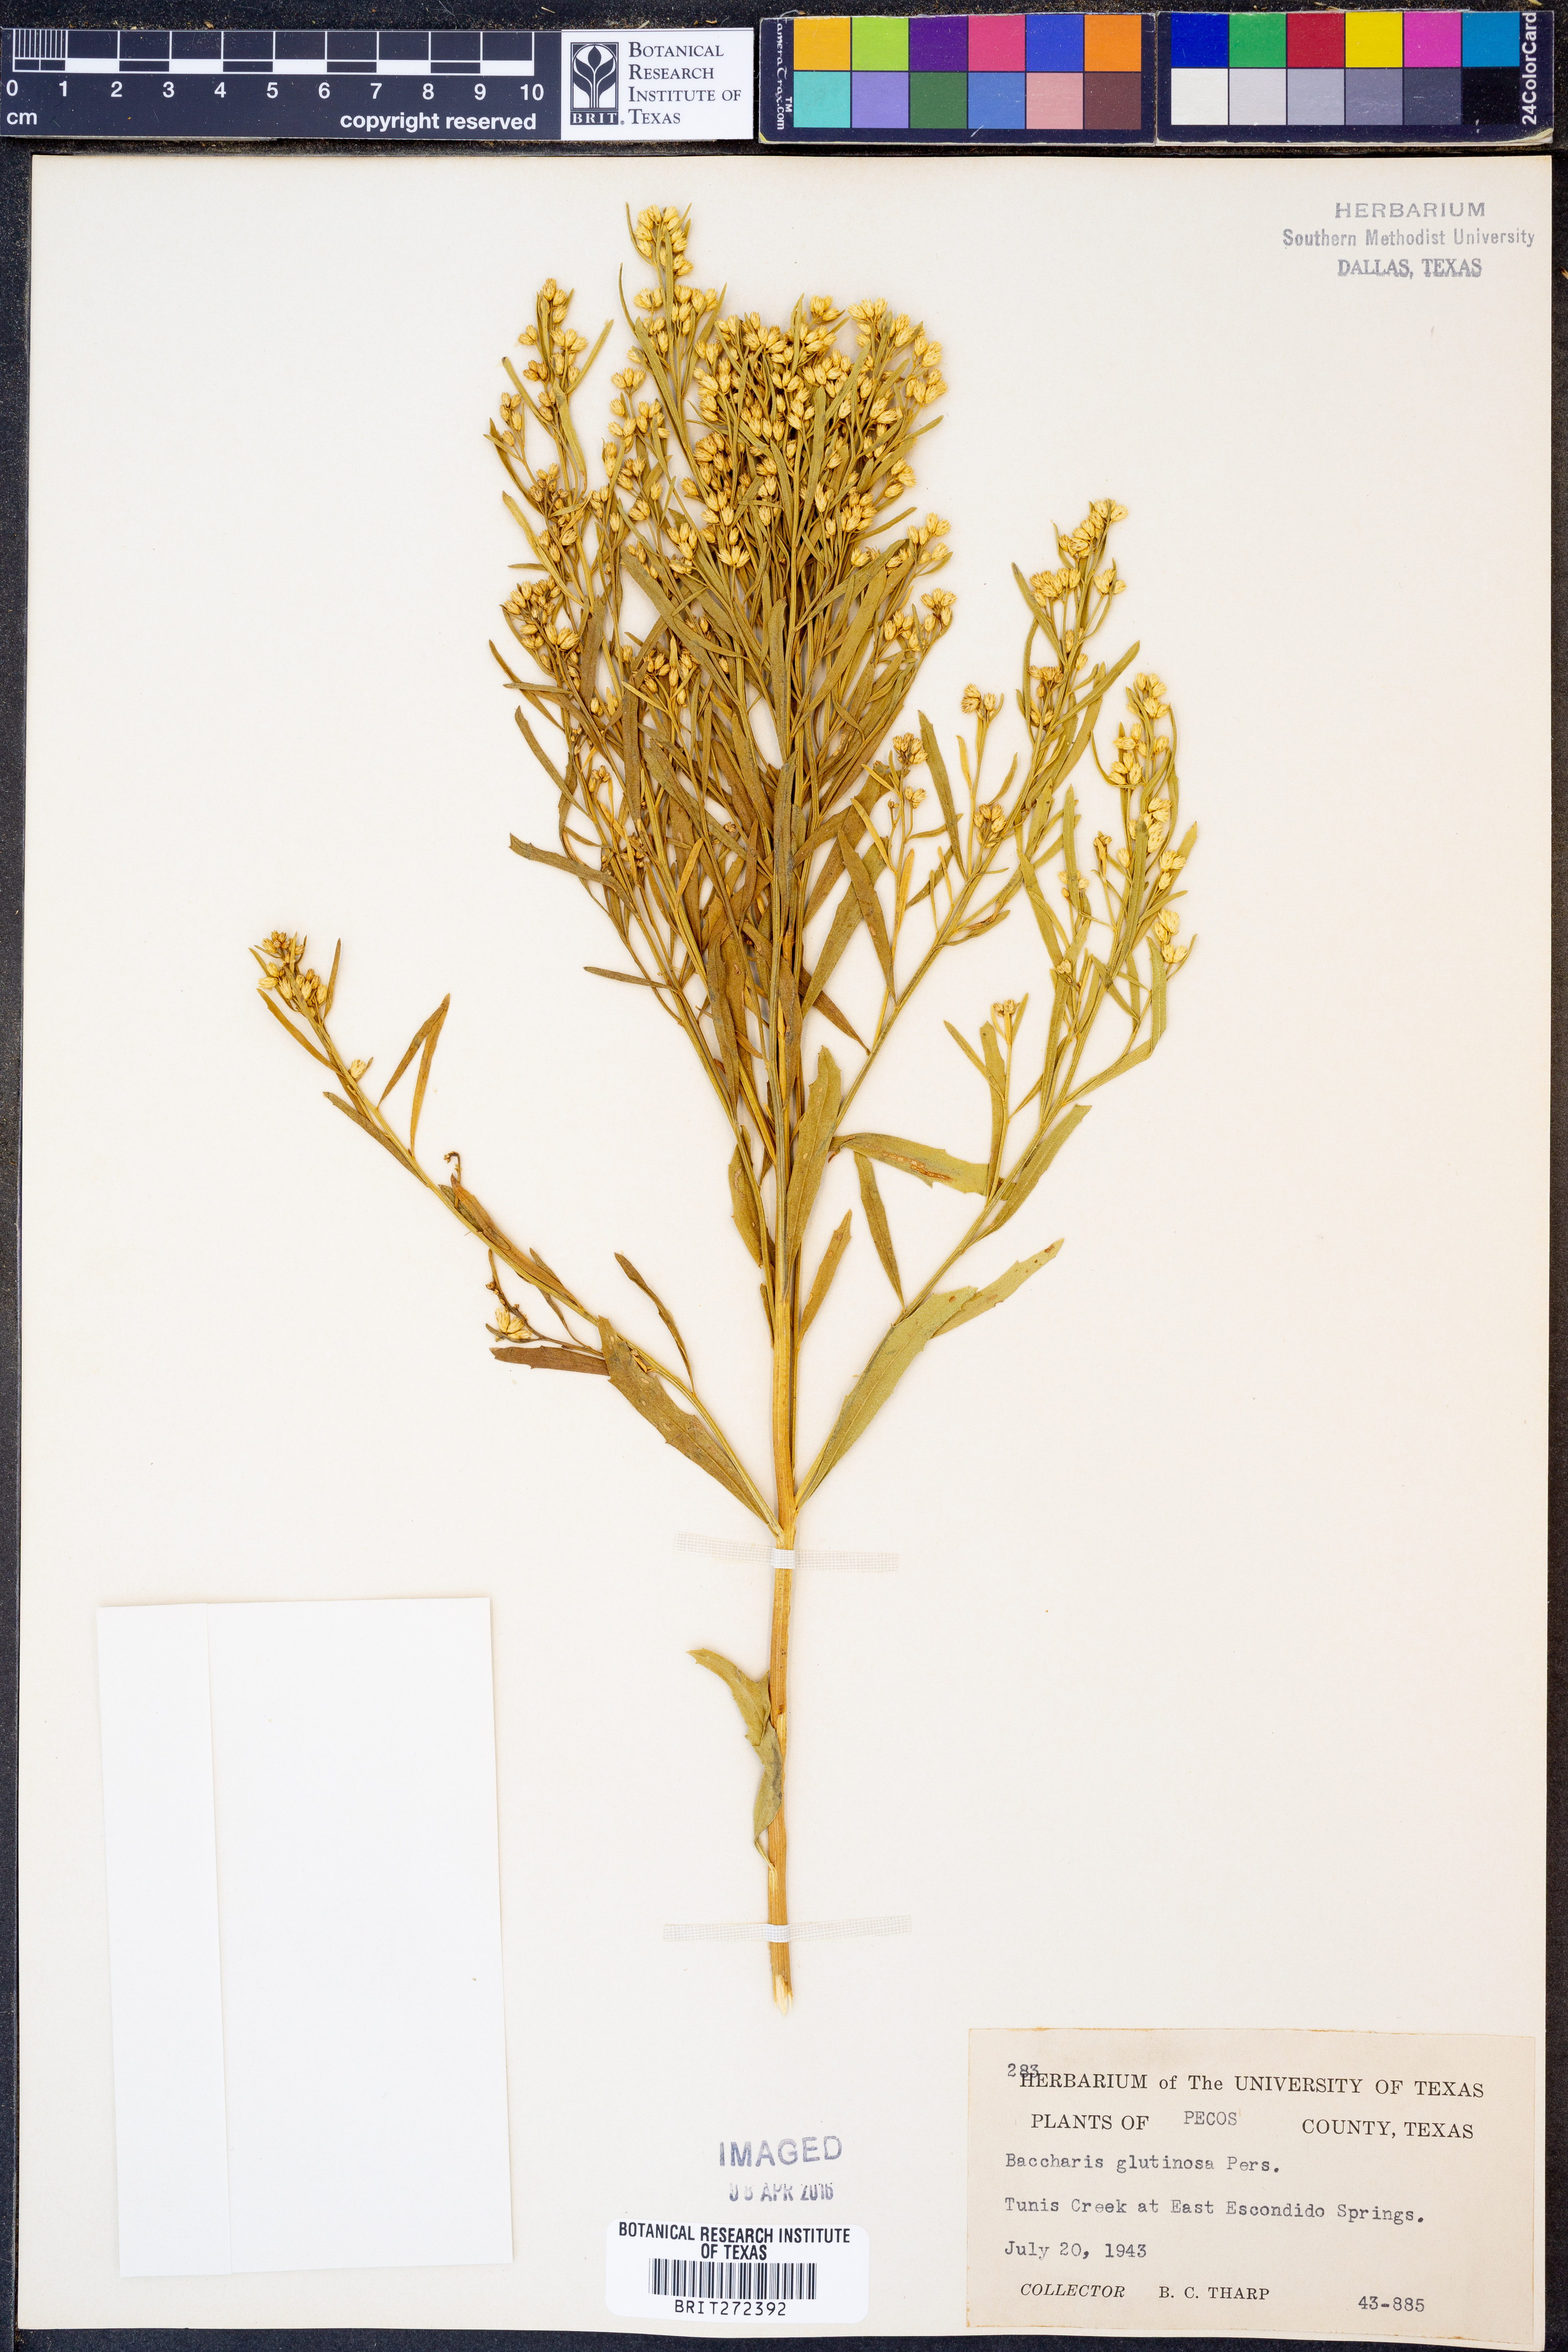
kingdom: Plantae
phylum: Tracheophyta
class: Magnoliopsida
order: Asterales
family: Asteraceae
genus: Baccharis
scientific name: Baccharis glutinosa
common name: Saltmarsh baccharis
